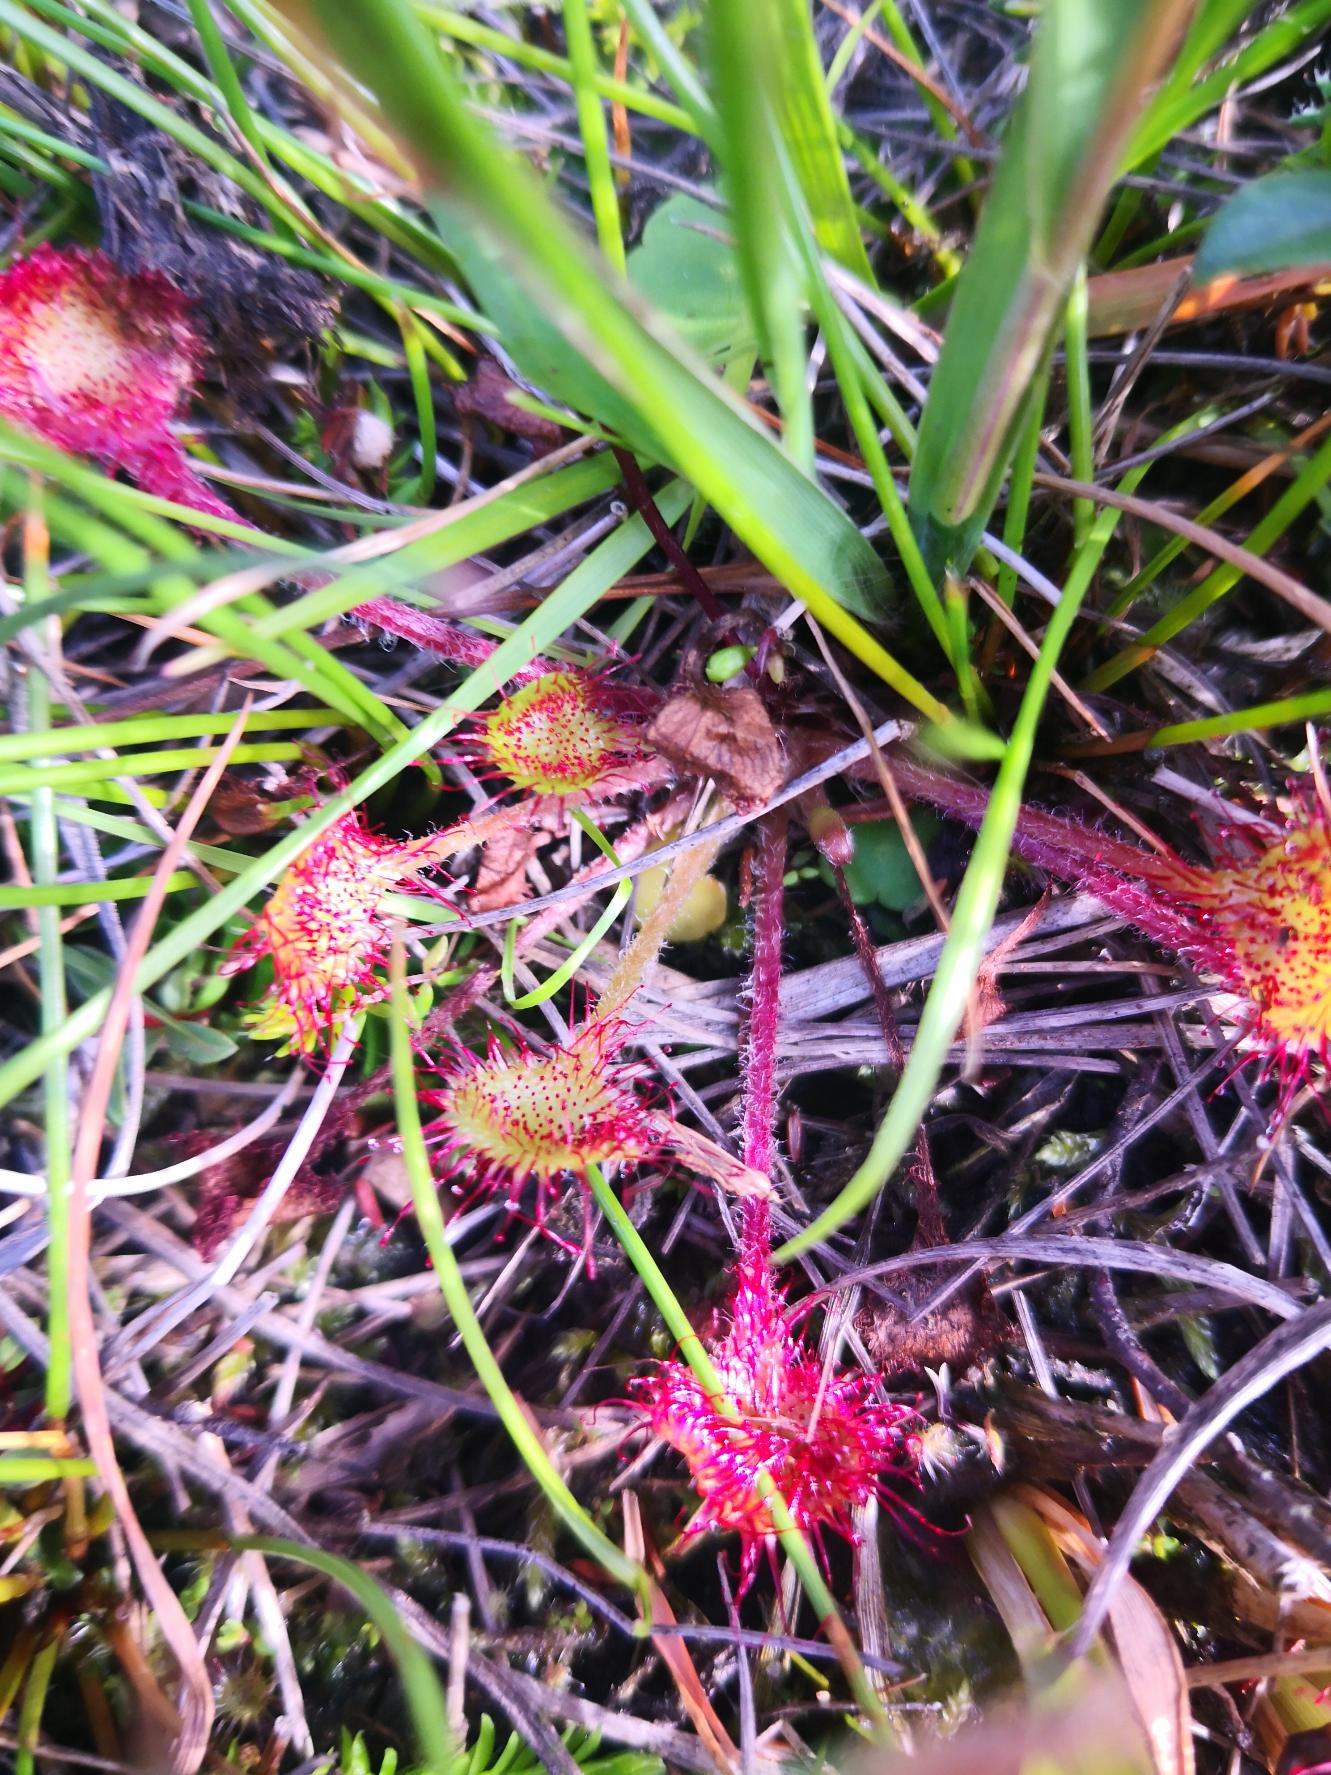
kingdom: Plantae
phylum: Tracheophyta
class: Magnoliopsida
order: Caryophyllales
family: Droseraceae
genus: Drosera
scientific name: Drosera rotundifolia
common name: Rundbladet soldug
